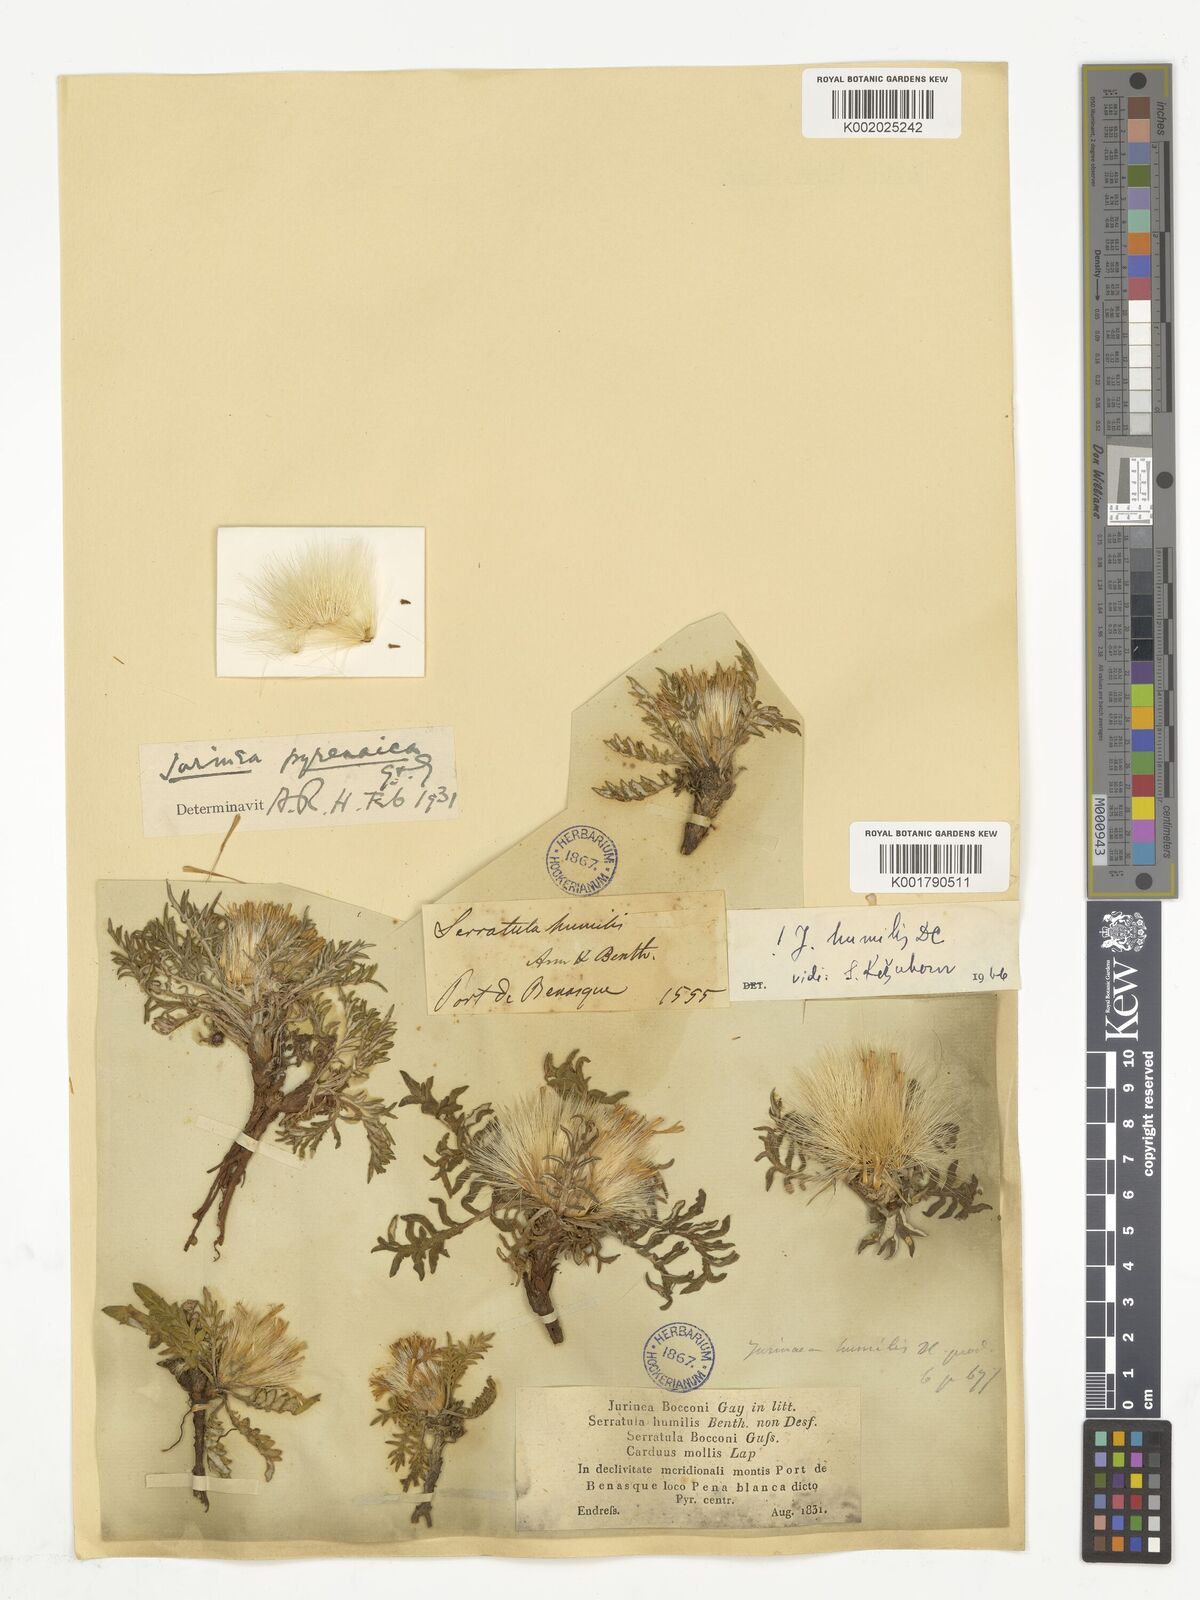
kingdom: Plantae
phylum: Tracheophyta
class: Magnoliopsida
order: Asterales
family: Asteraceae
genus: Jurinea
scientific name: Jurinea humilis
